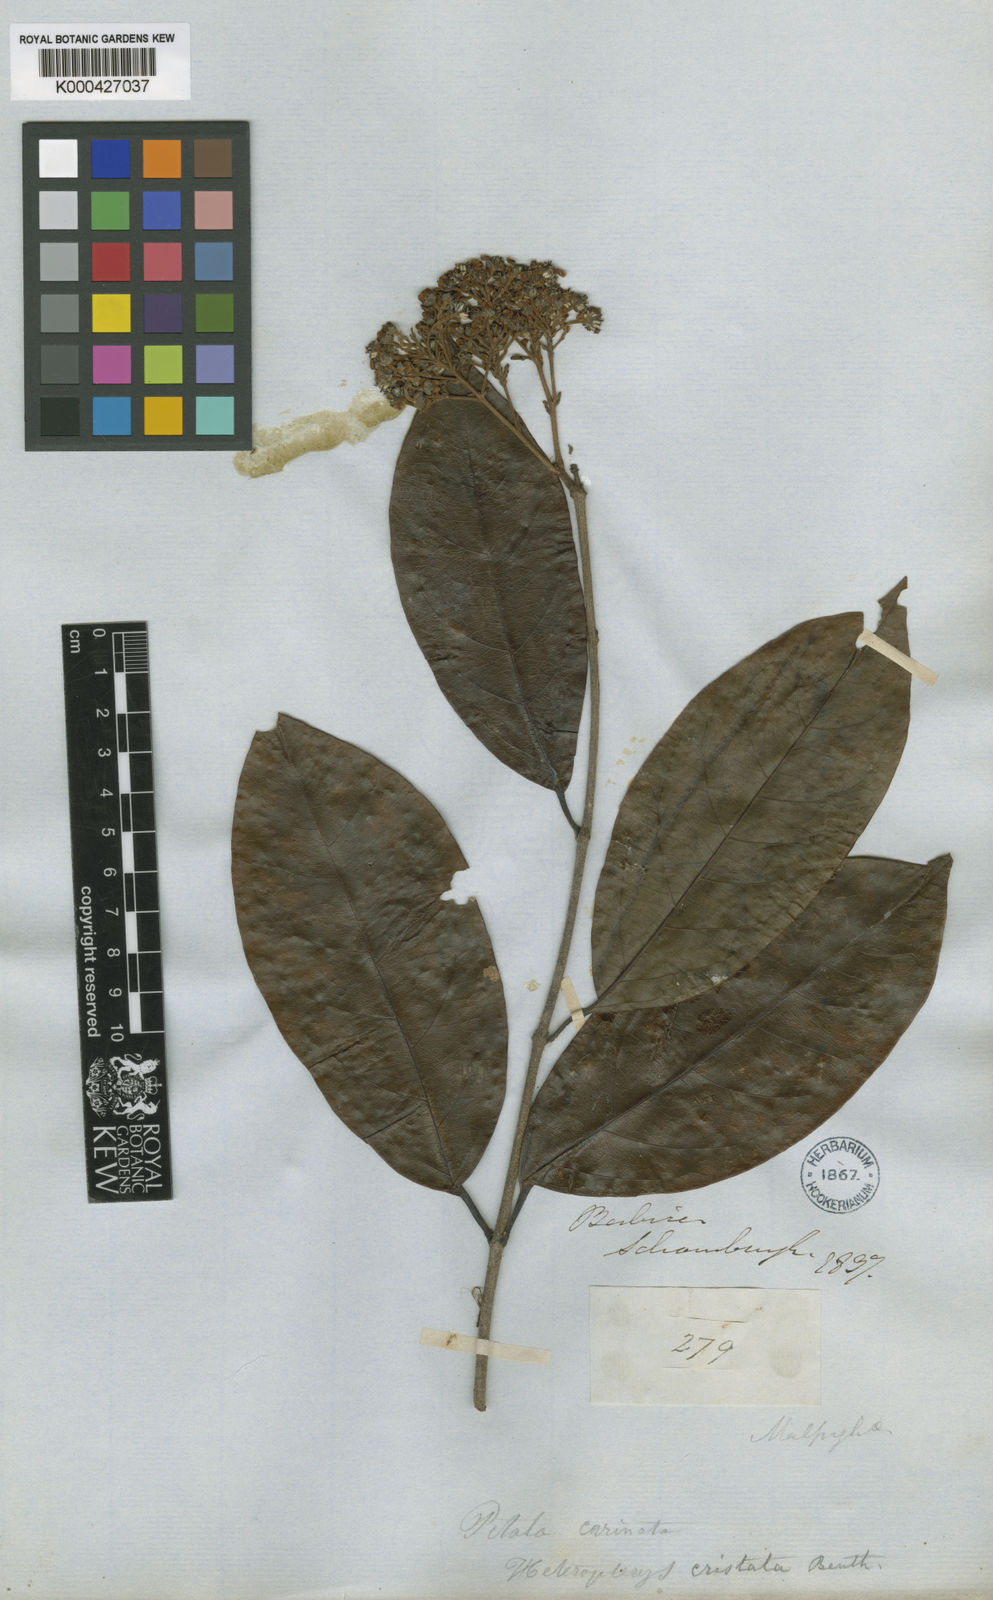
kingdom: Plantae
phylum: Tracheophyta
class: Magnoliopsida
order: Malpighiales
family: Malpighiaceae
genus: Heteropterys
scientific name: Heteropterys cristata
